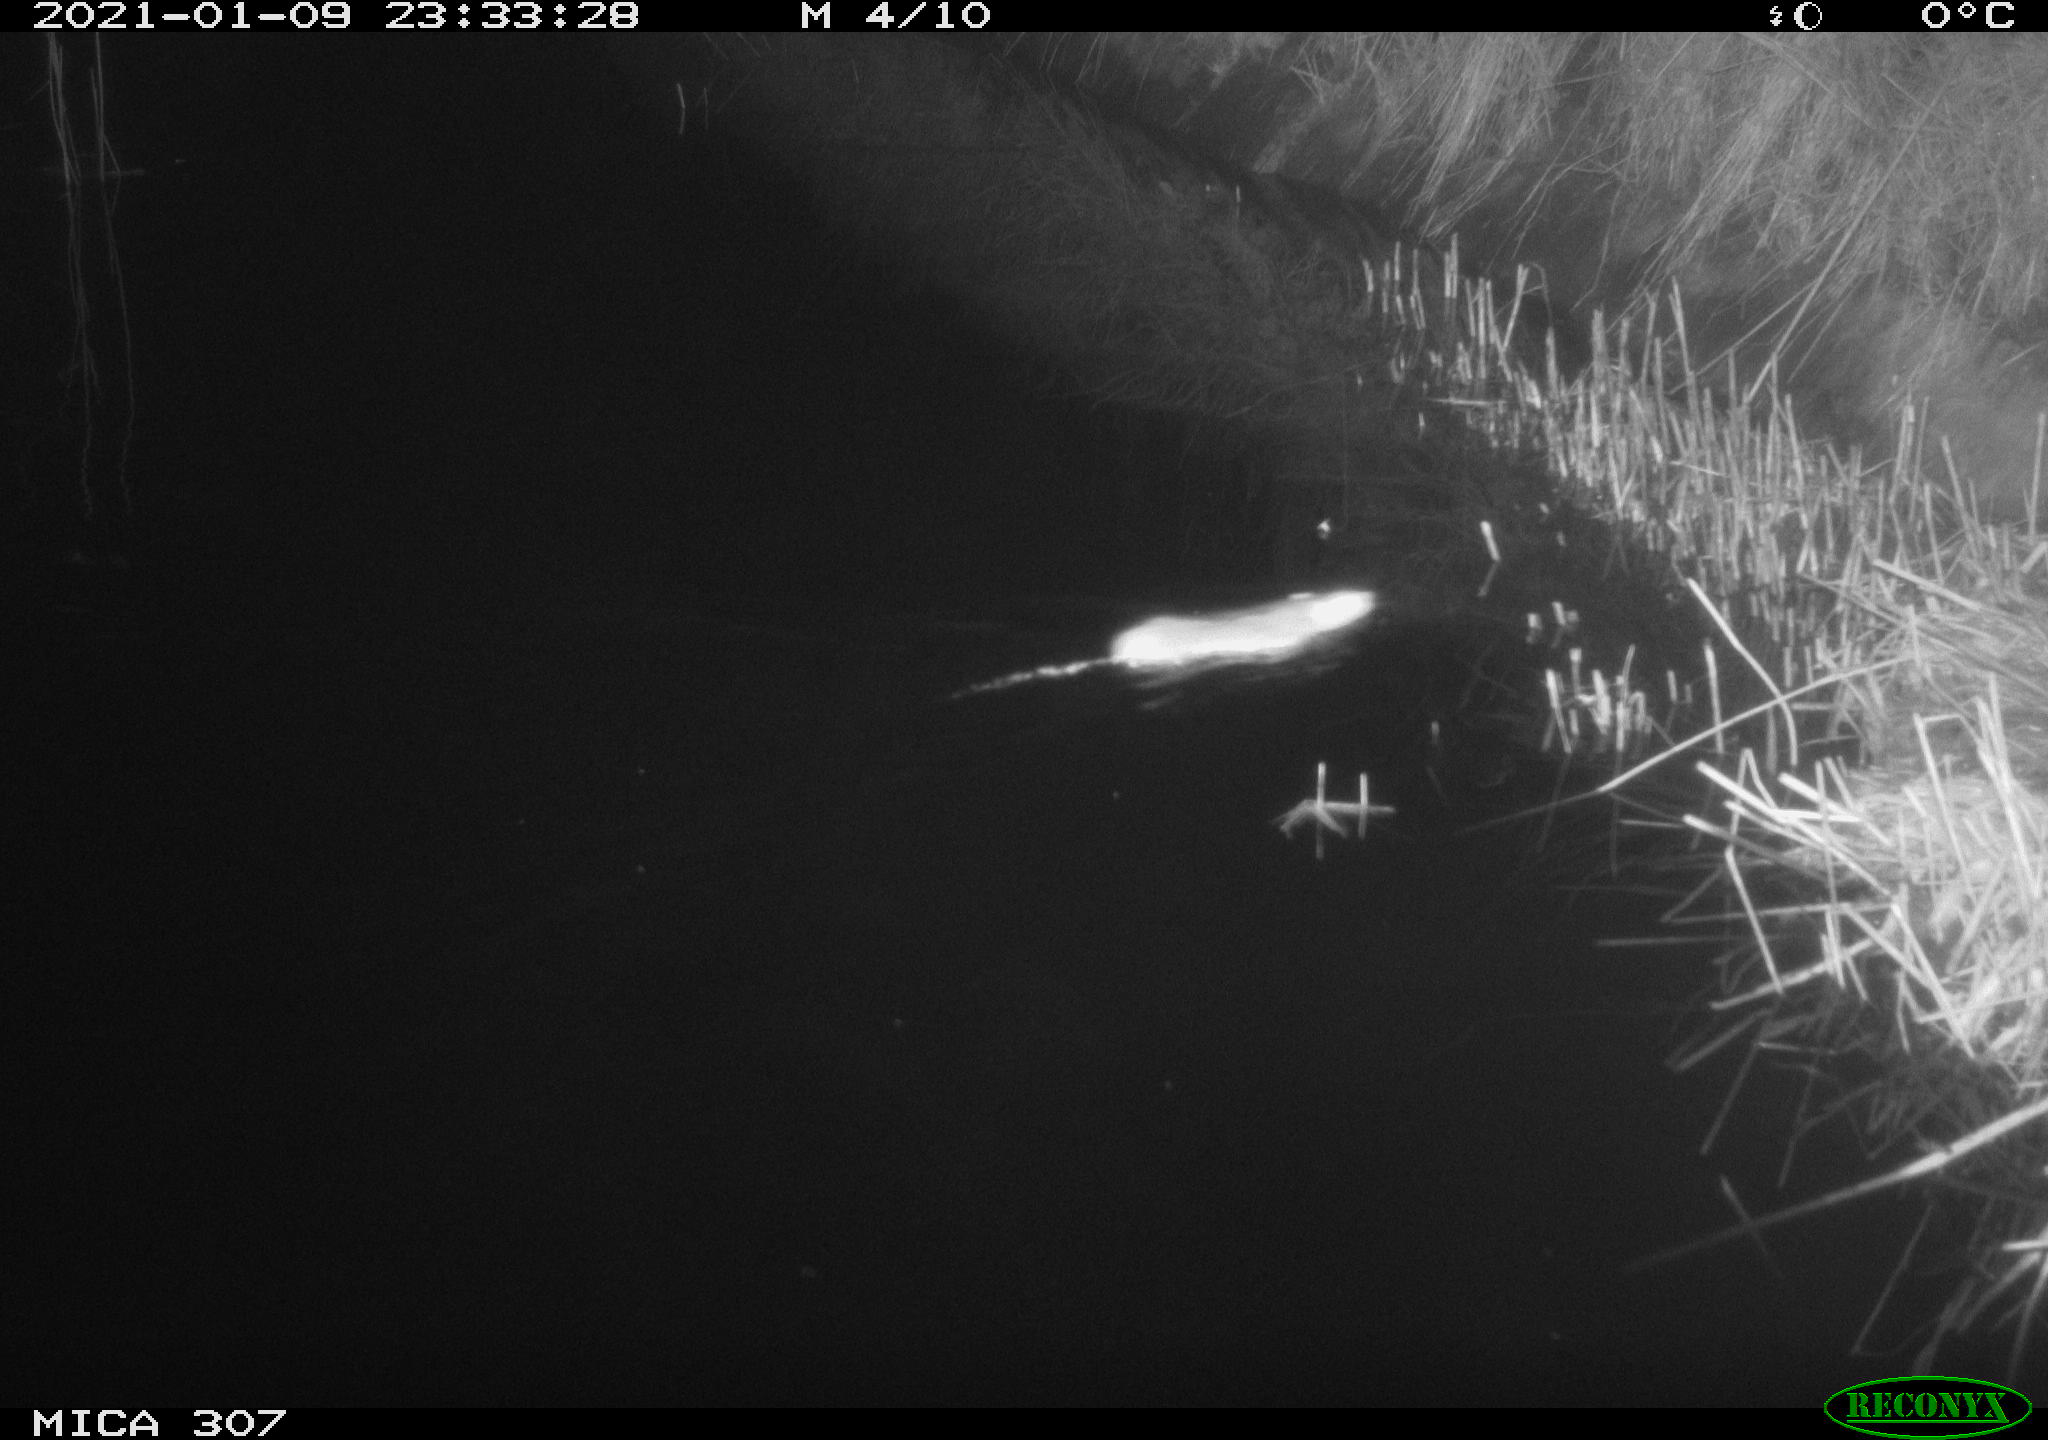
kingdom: Animalia
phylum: Chordata
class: Mammalia
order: Rodentia
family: Muridae
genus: Rattus
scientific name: Rattus norvegicus
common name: Brown rat
